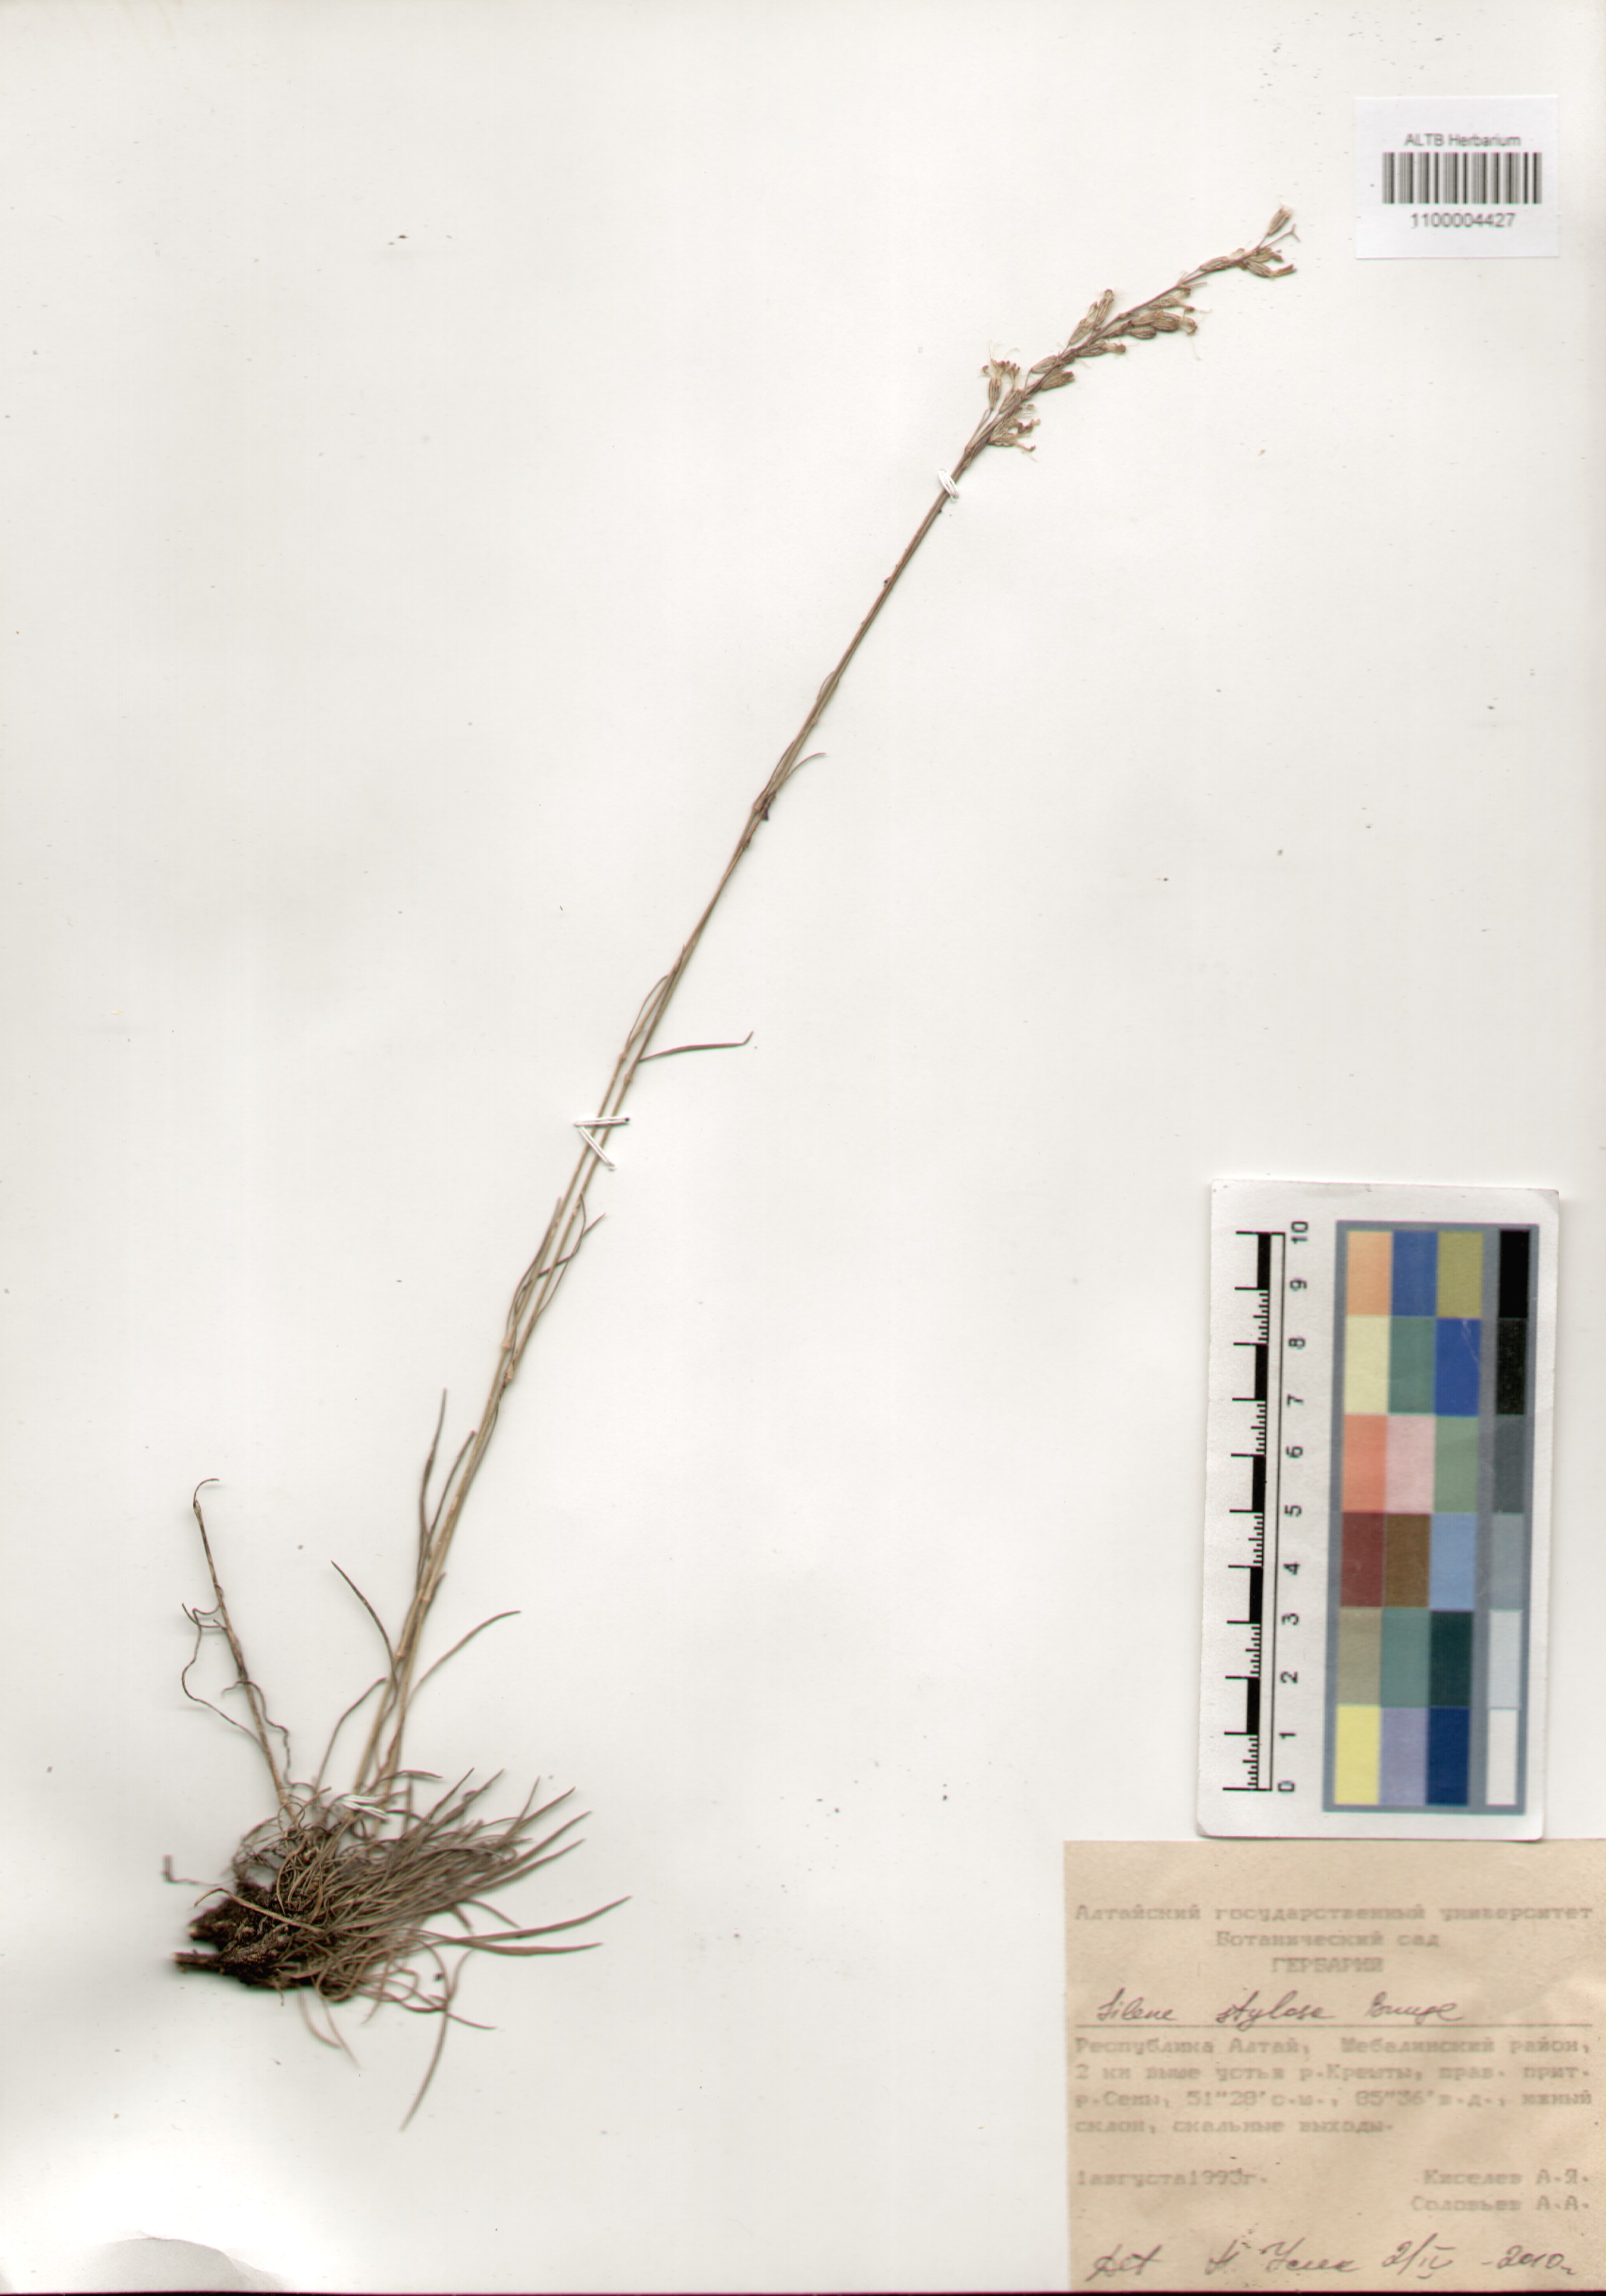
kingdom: Plantae
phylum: Tracheophyta
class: Magnoliopsida
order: Caryophyllales
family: Caryophyllaceae
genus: Silene
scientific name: Silene graminifolia
